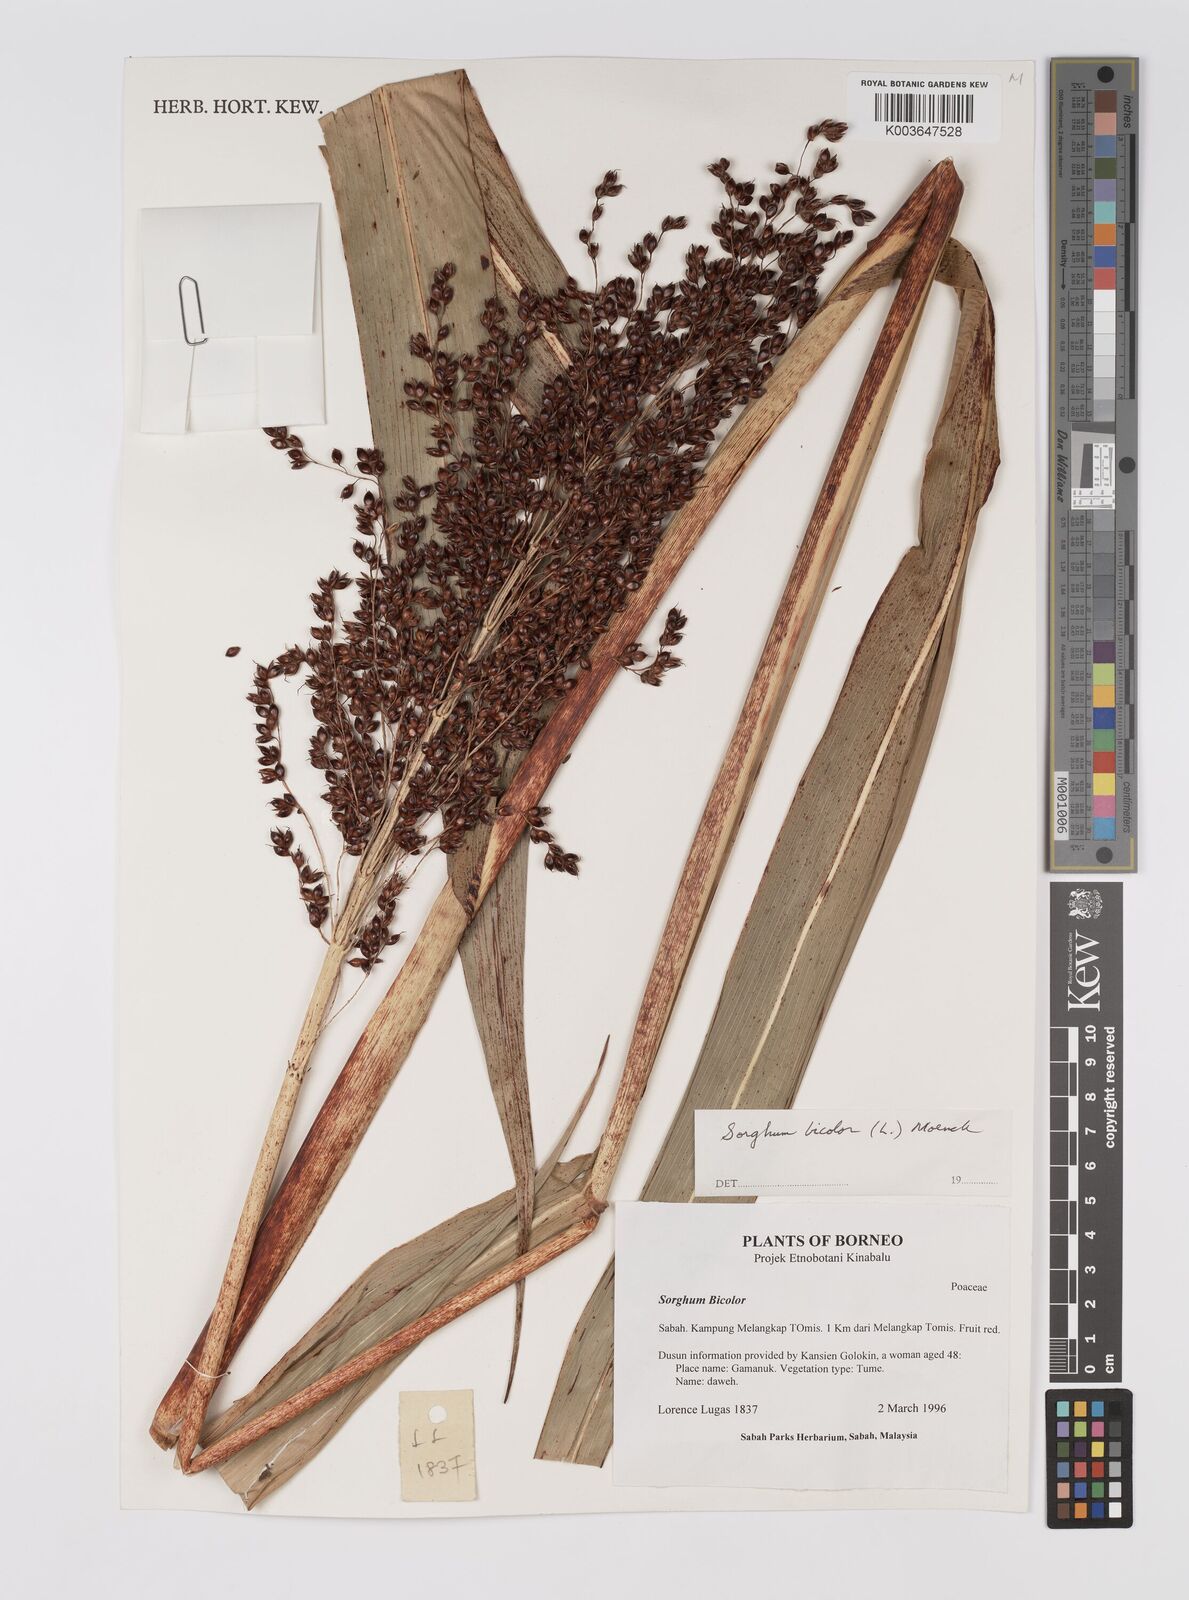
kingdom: Plantae
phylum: Tracheophyta
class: Liliopsida
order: Poales
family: Poaceae
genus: Hyparrhenia
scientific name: Hyparrhenia dichroa
